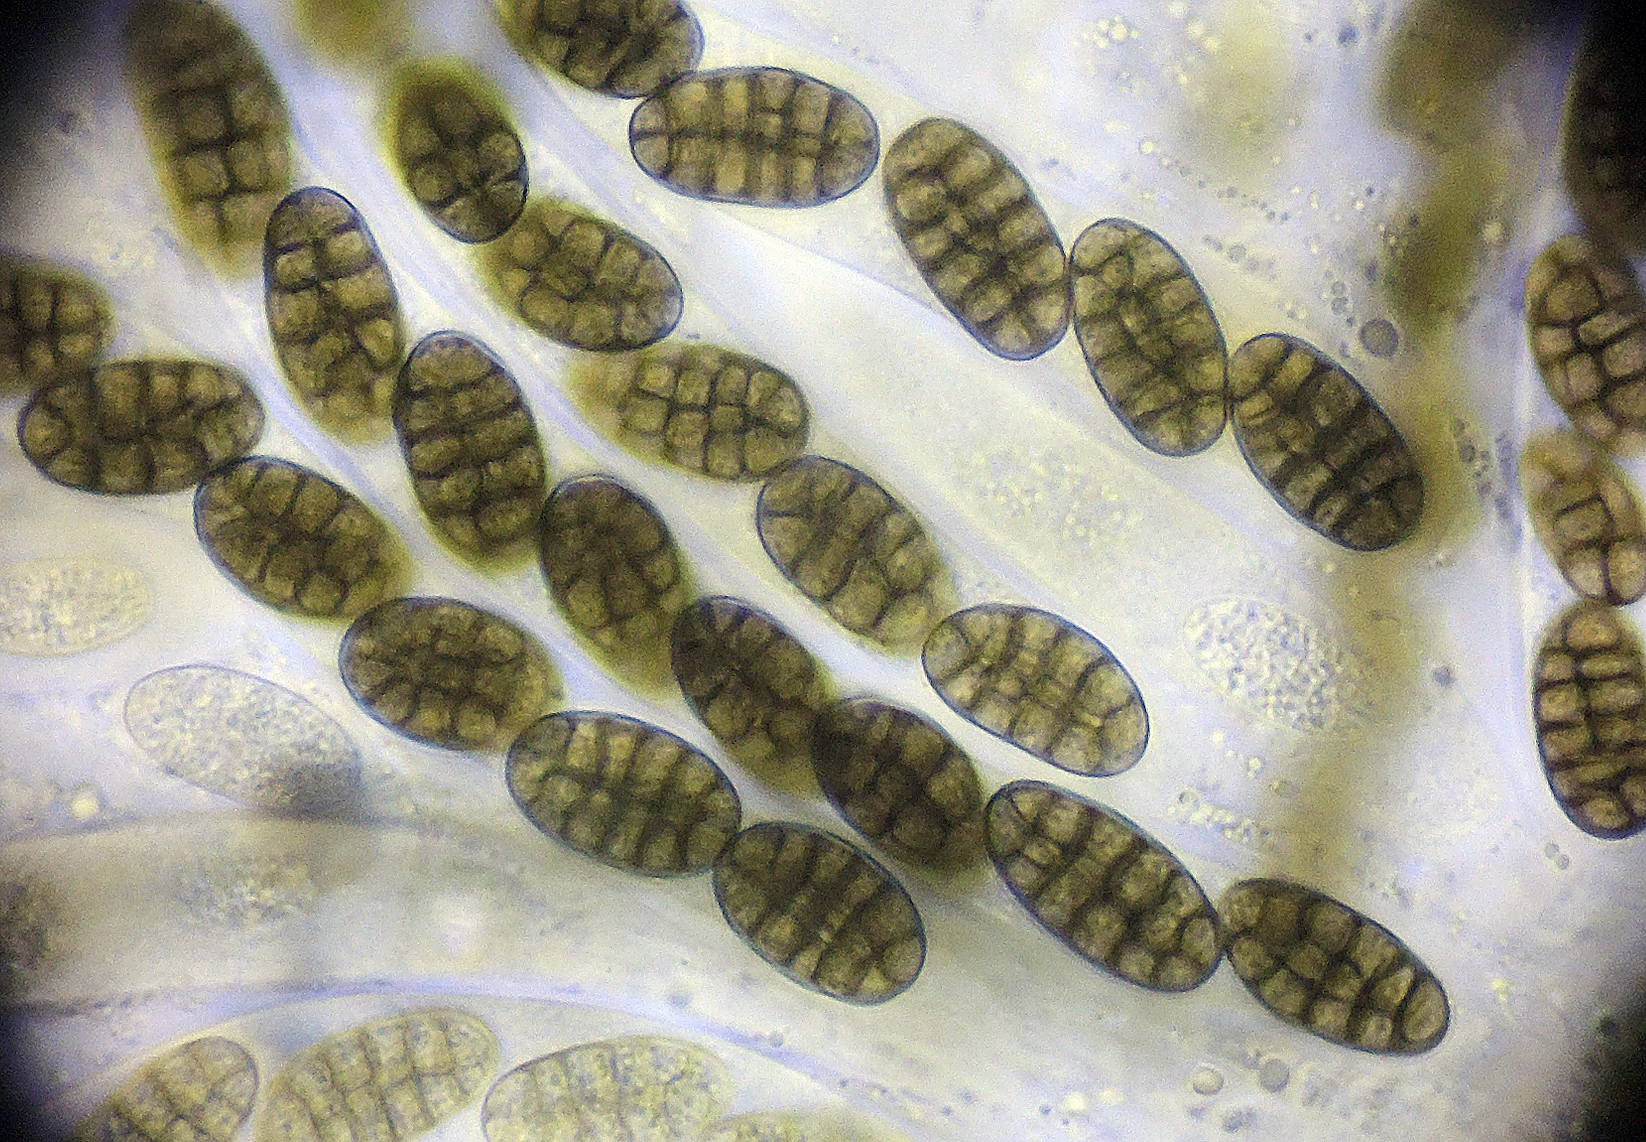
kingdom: Fungi
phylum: Ascomycota
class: Dothideomycetes
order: Pleosporales
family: Teichosporaceae
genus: Teichospora
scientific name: Teichospora
